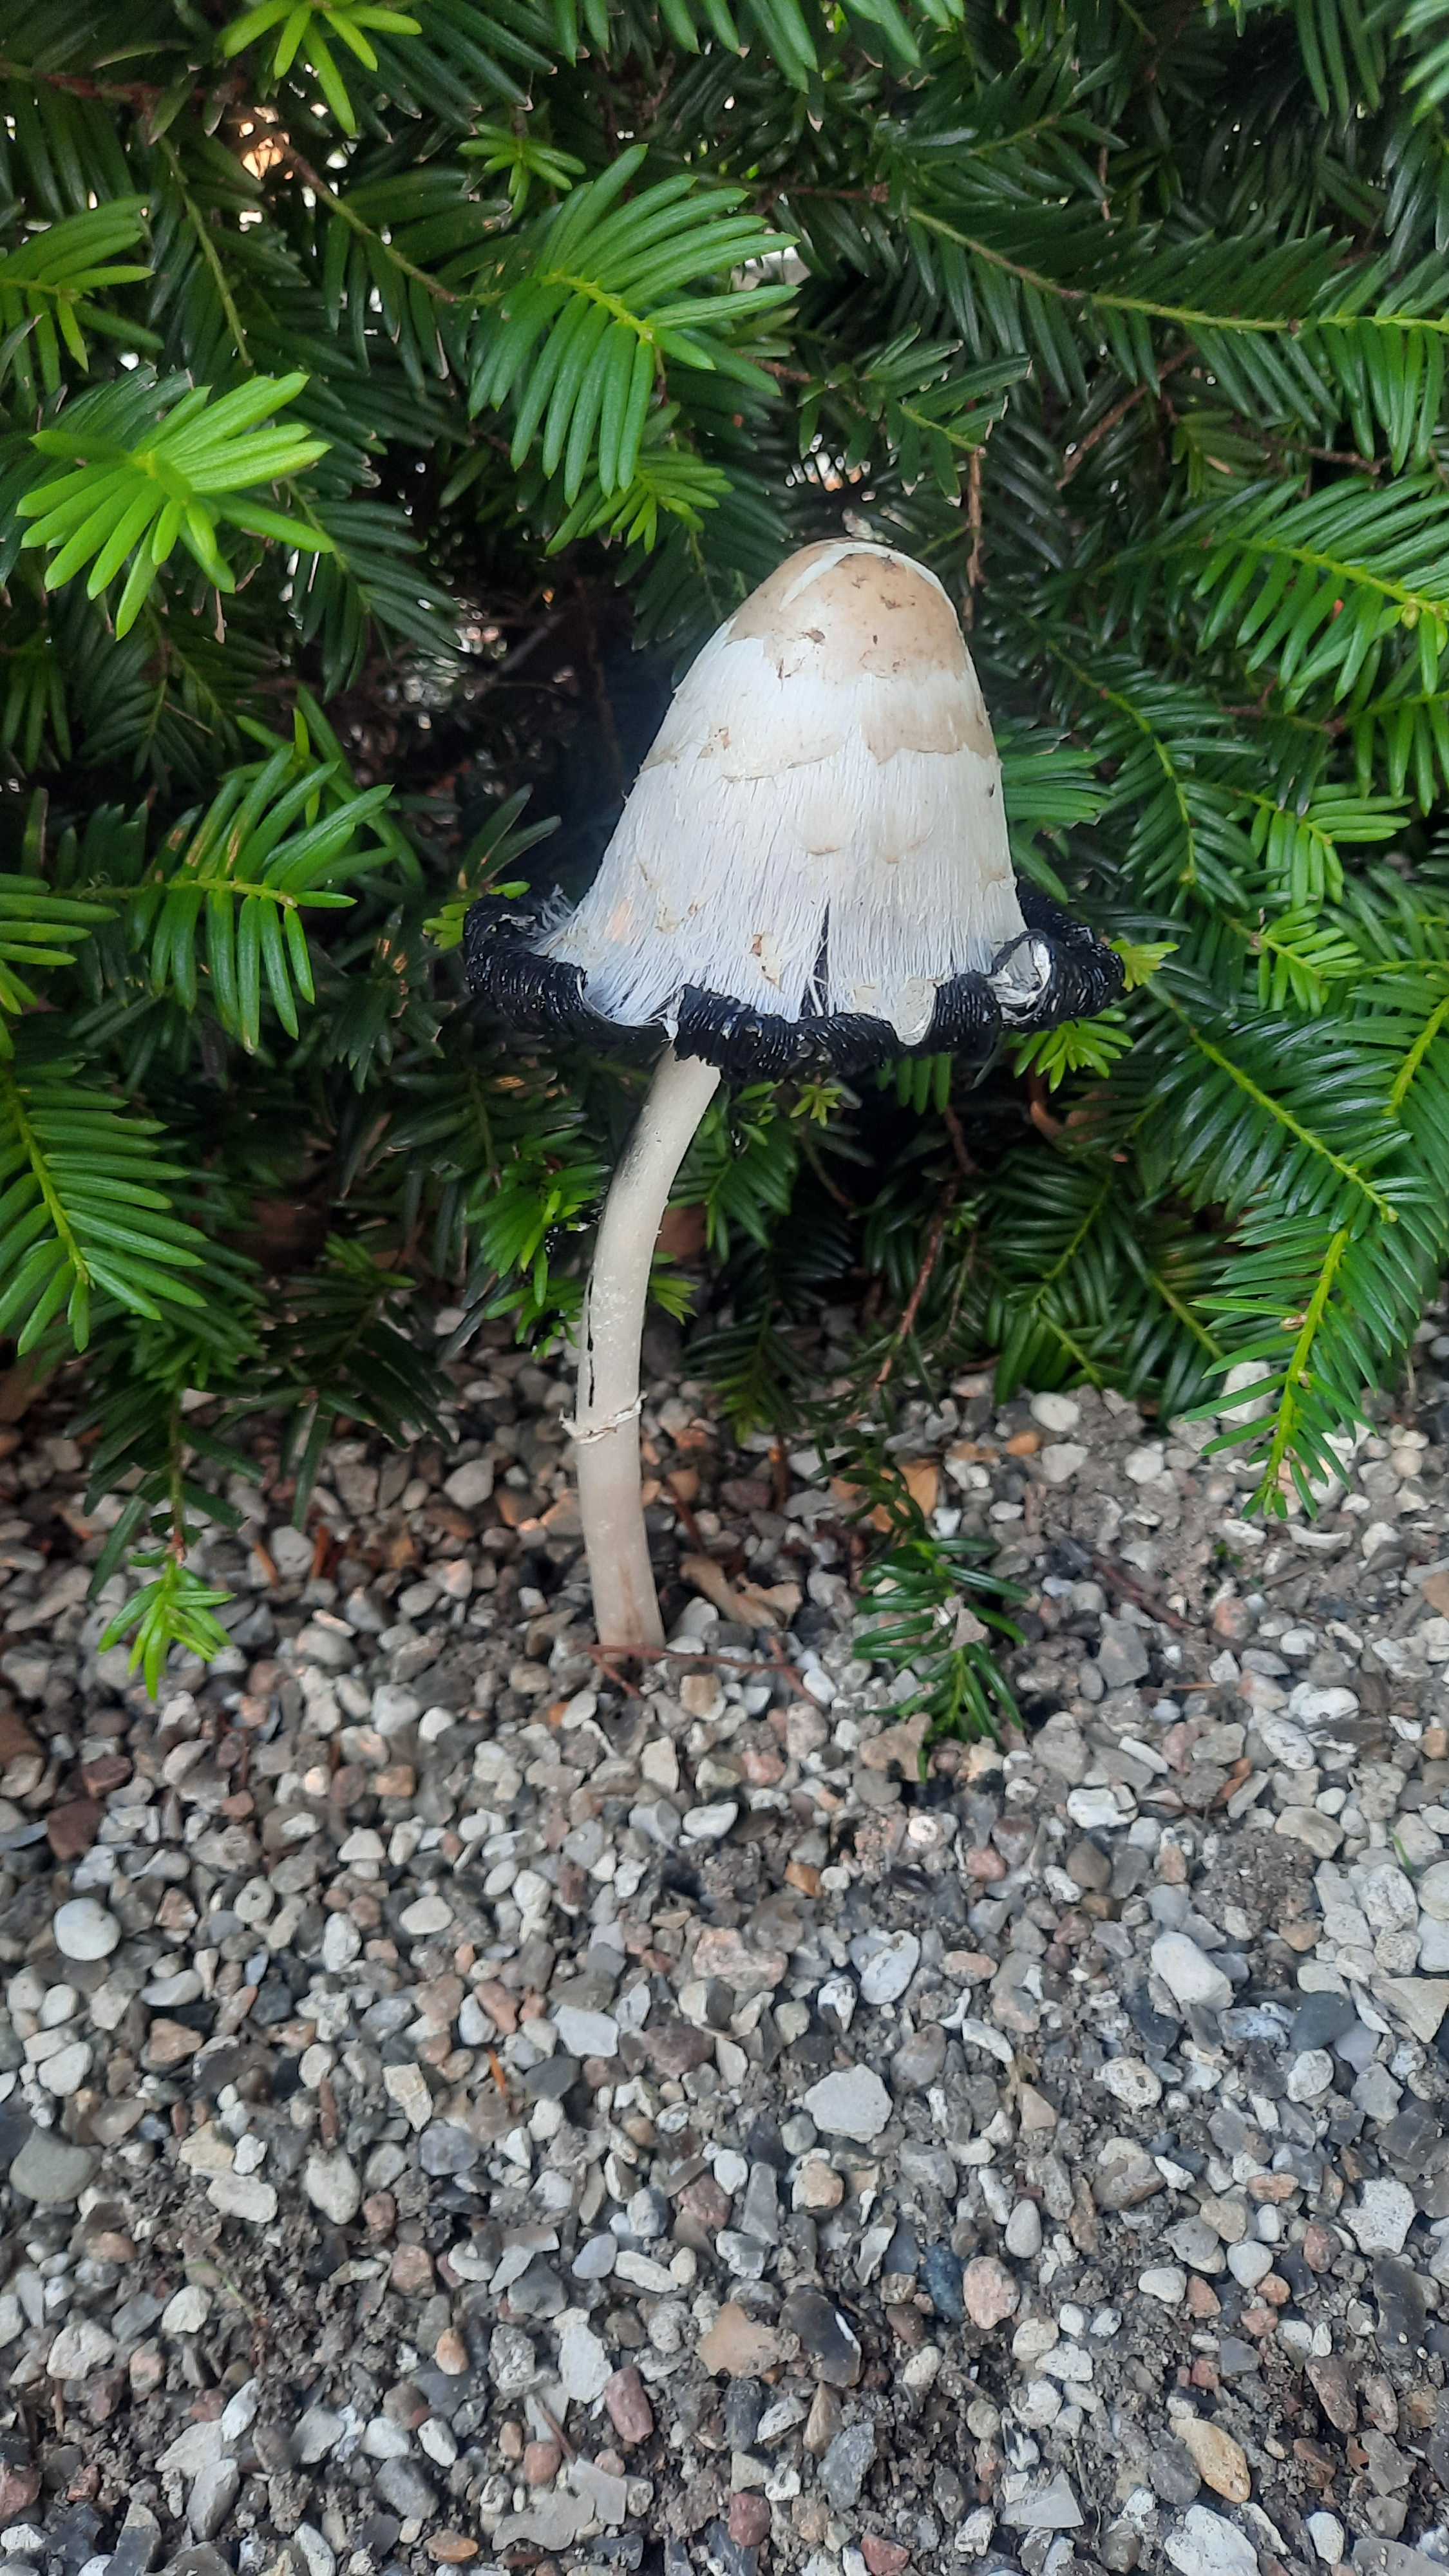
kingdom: Fungi
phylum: Basidiomycota
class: Agaricomycetes
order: Agaricales
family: Agaricaceae
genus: Coprinus
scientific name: Coprinus comatus
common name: stor parykhat
